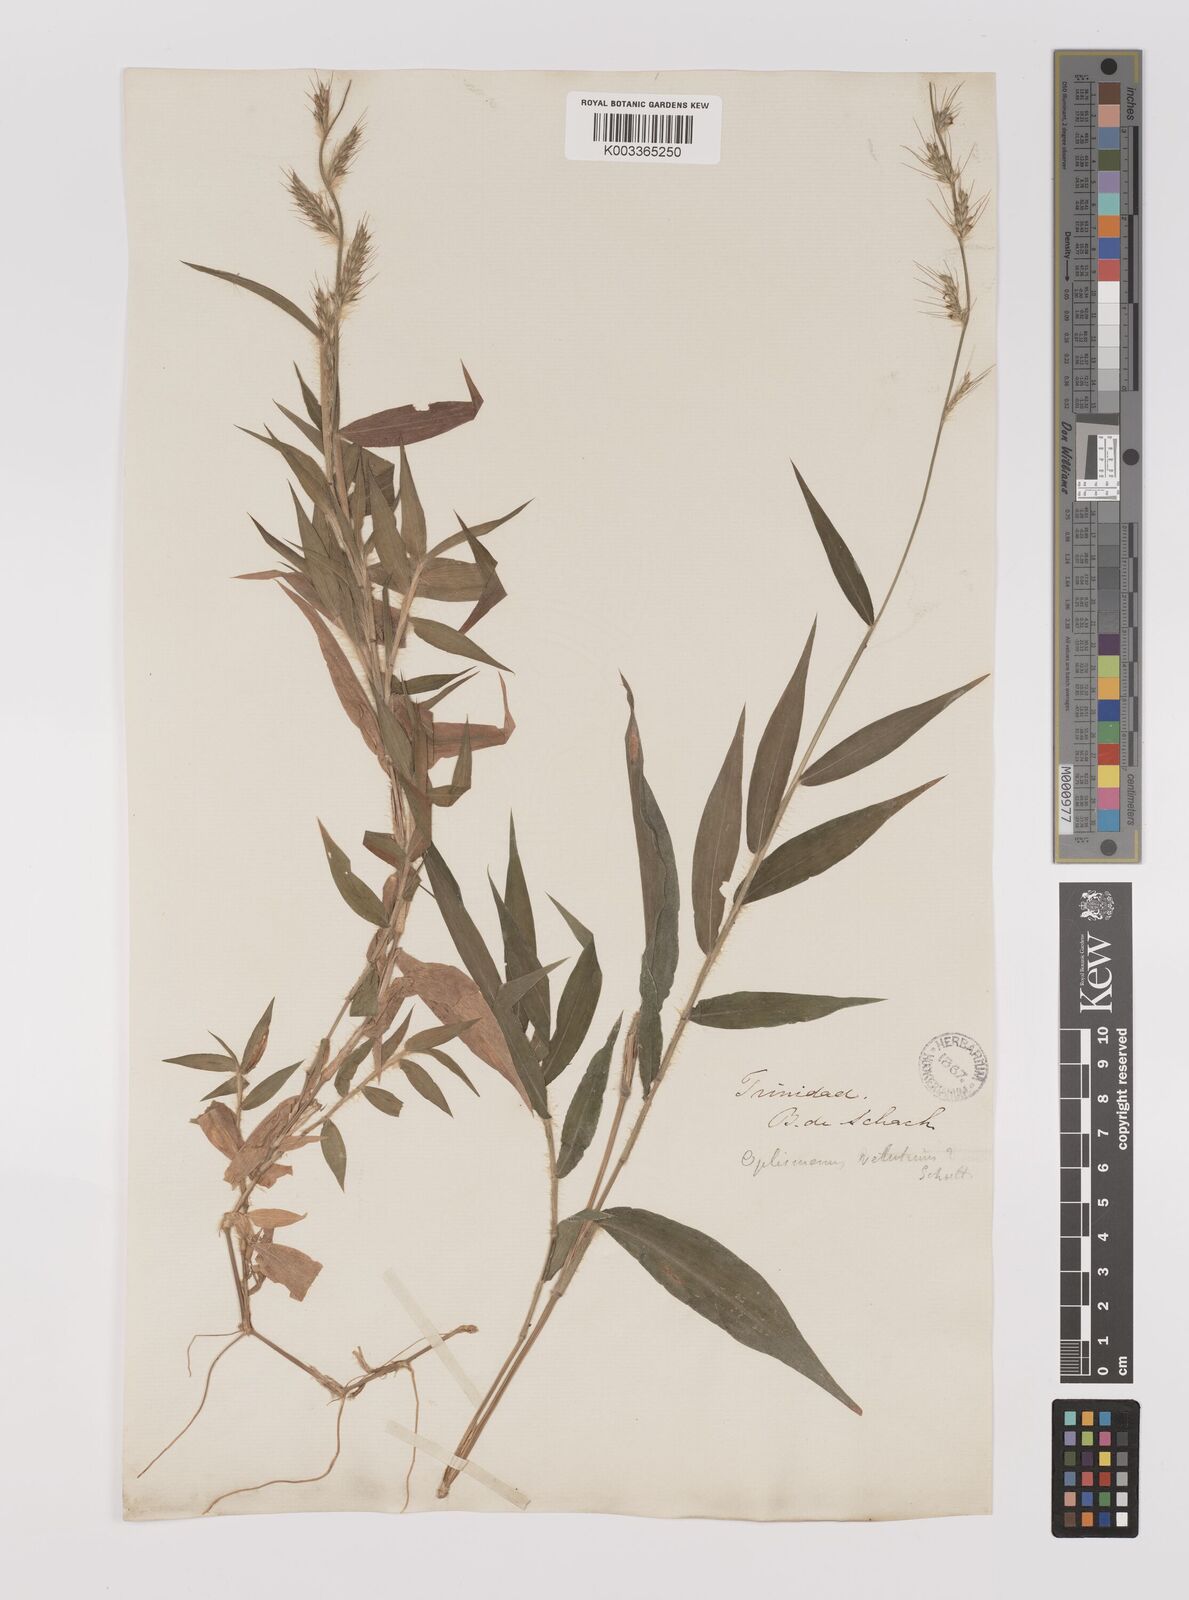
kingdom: Plantae
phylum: Tracheophyta
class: Liliopsida
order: Poales
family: Poaceae
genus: Oplismenus
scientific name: Oplismenus hirtellus
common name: Basketgrass
